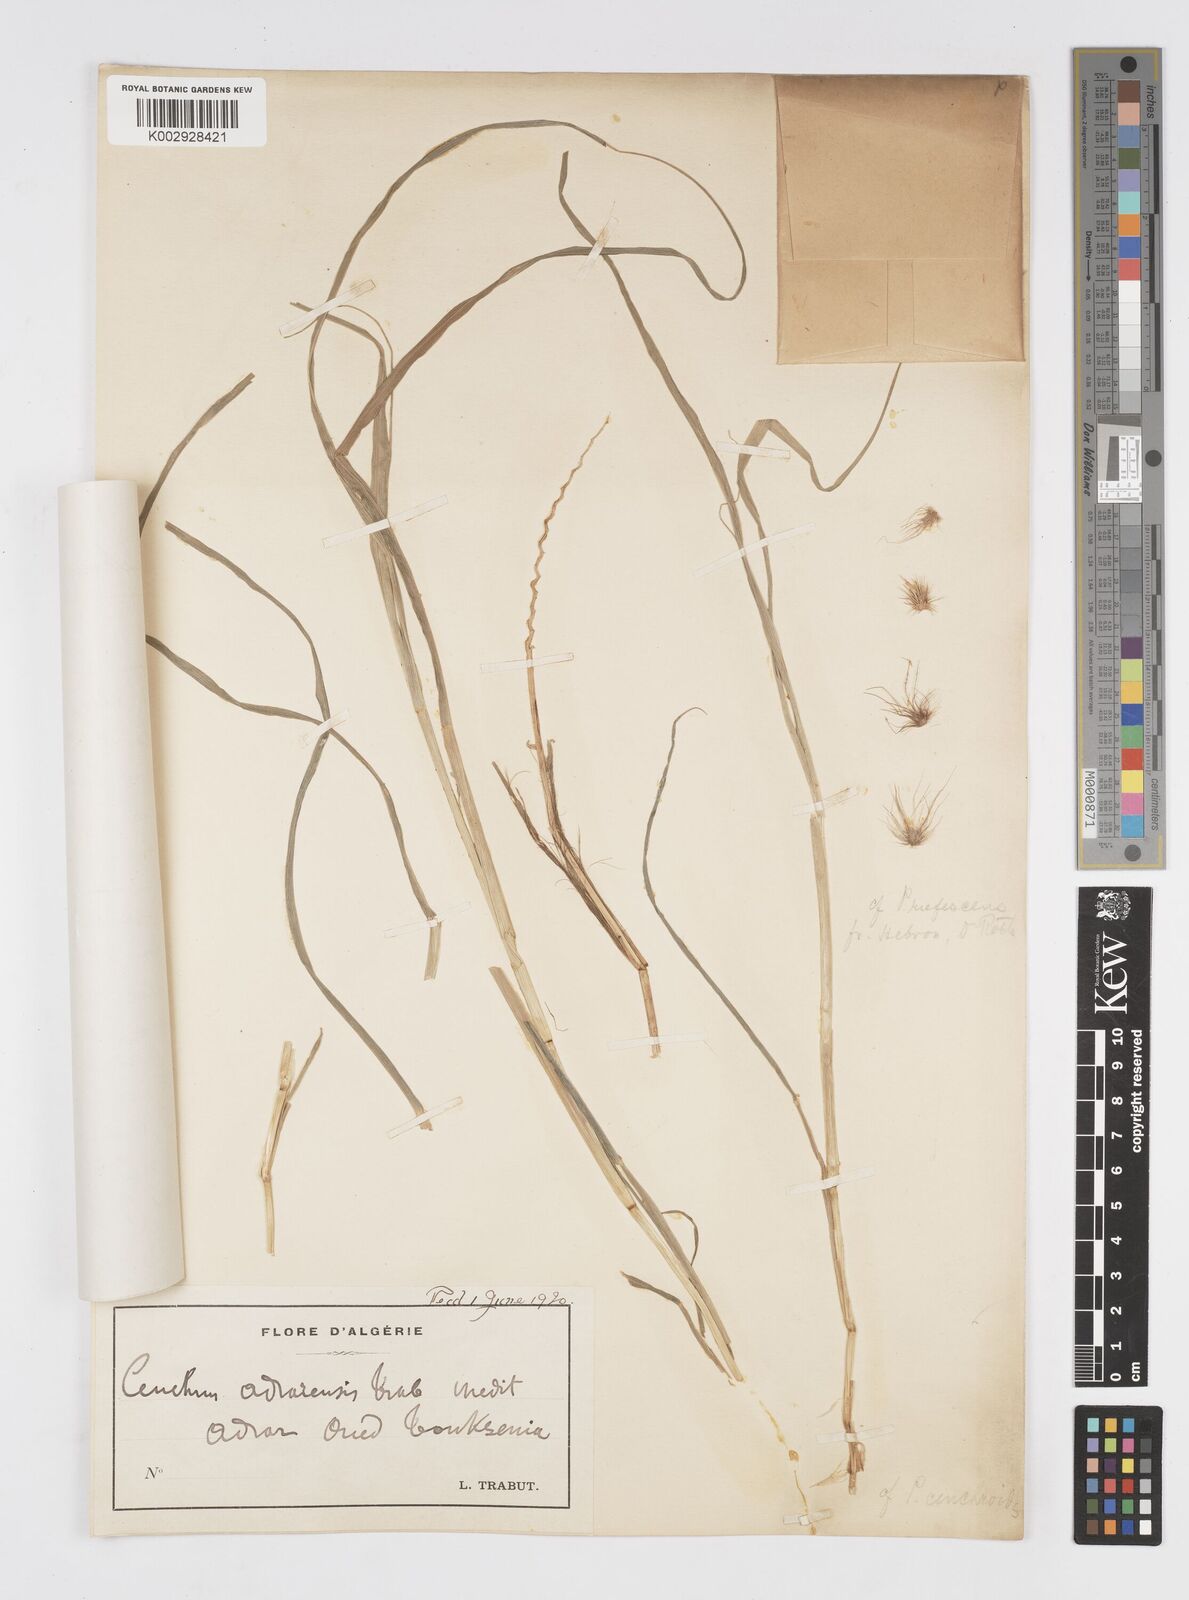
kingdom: Plantae
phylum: Tracheophyta
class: Liliopsida
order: Poales
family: Poaceae
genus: Cenchrus
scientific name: Cenchrus prieurii
